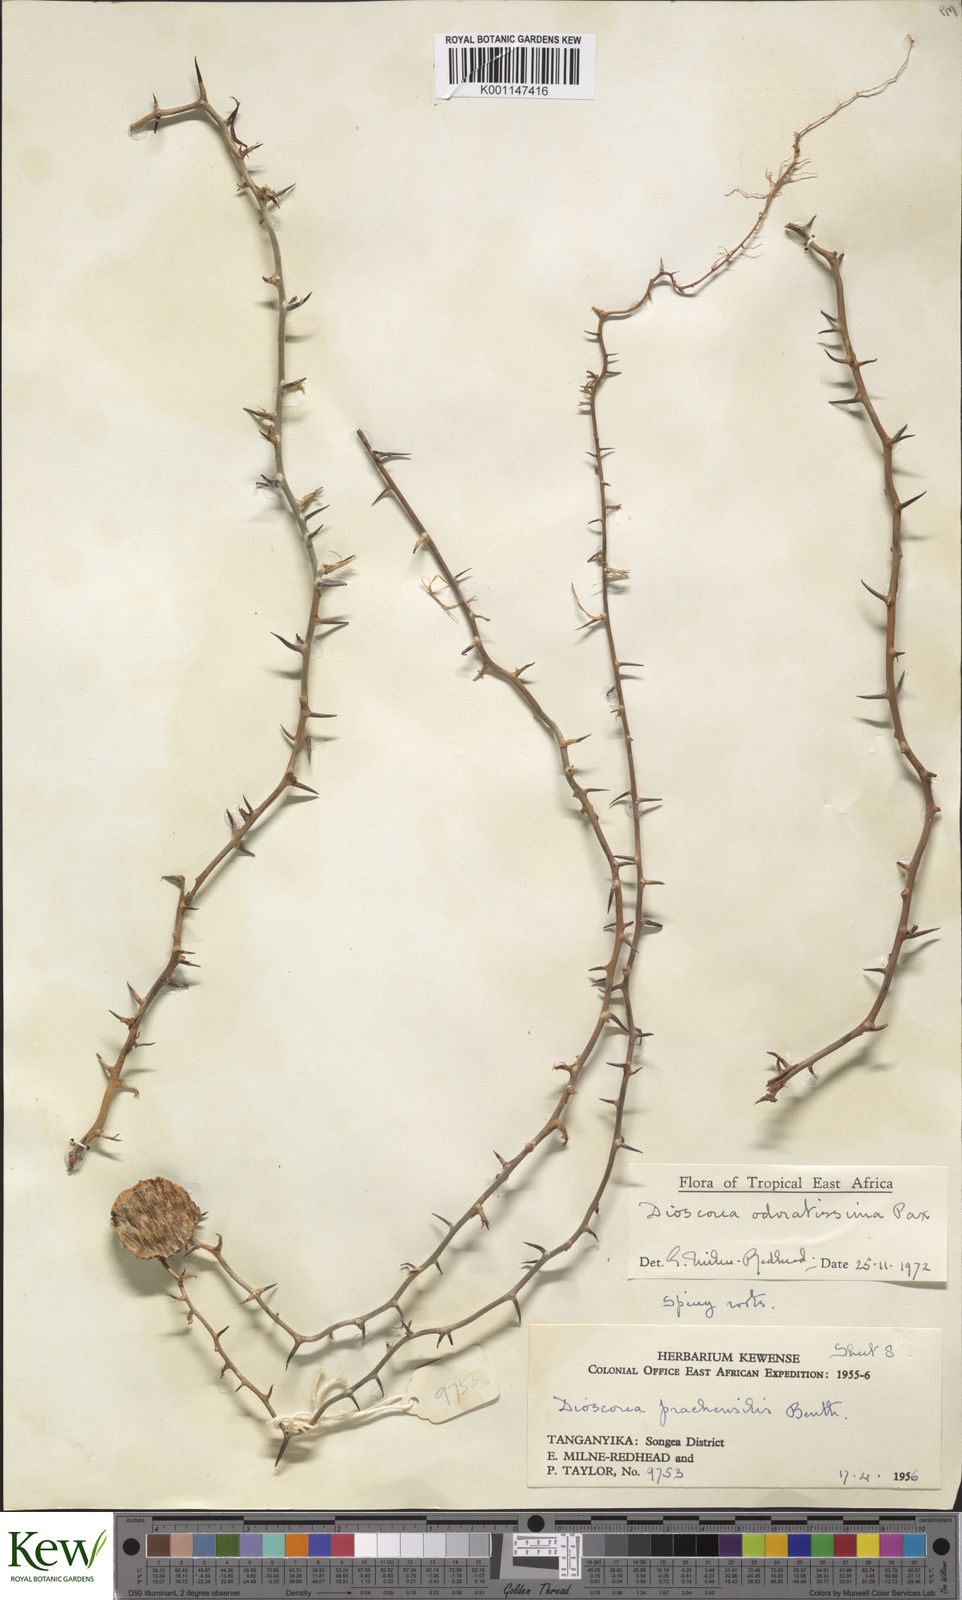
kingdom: Plantae
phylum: Tracheophyta
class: Liliopsida
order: Dioscoreales
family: Dioscoreaceae
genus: Dioscorea
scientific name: Dioscorea praehensilis
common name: Bush yam
